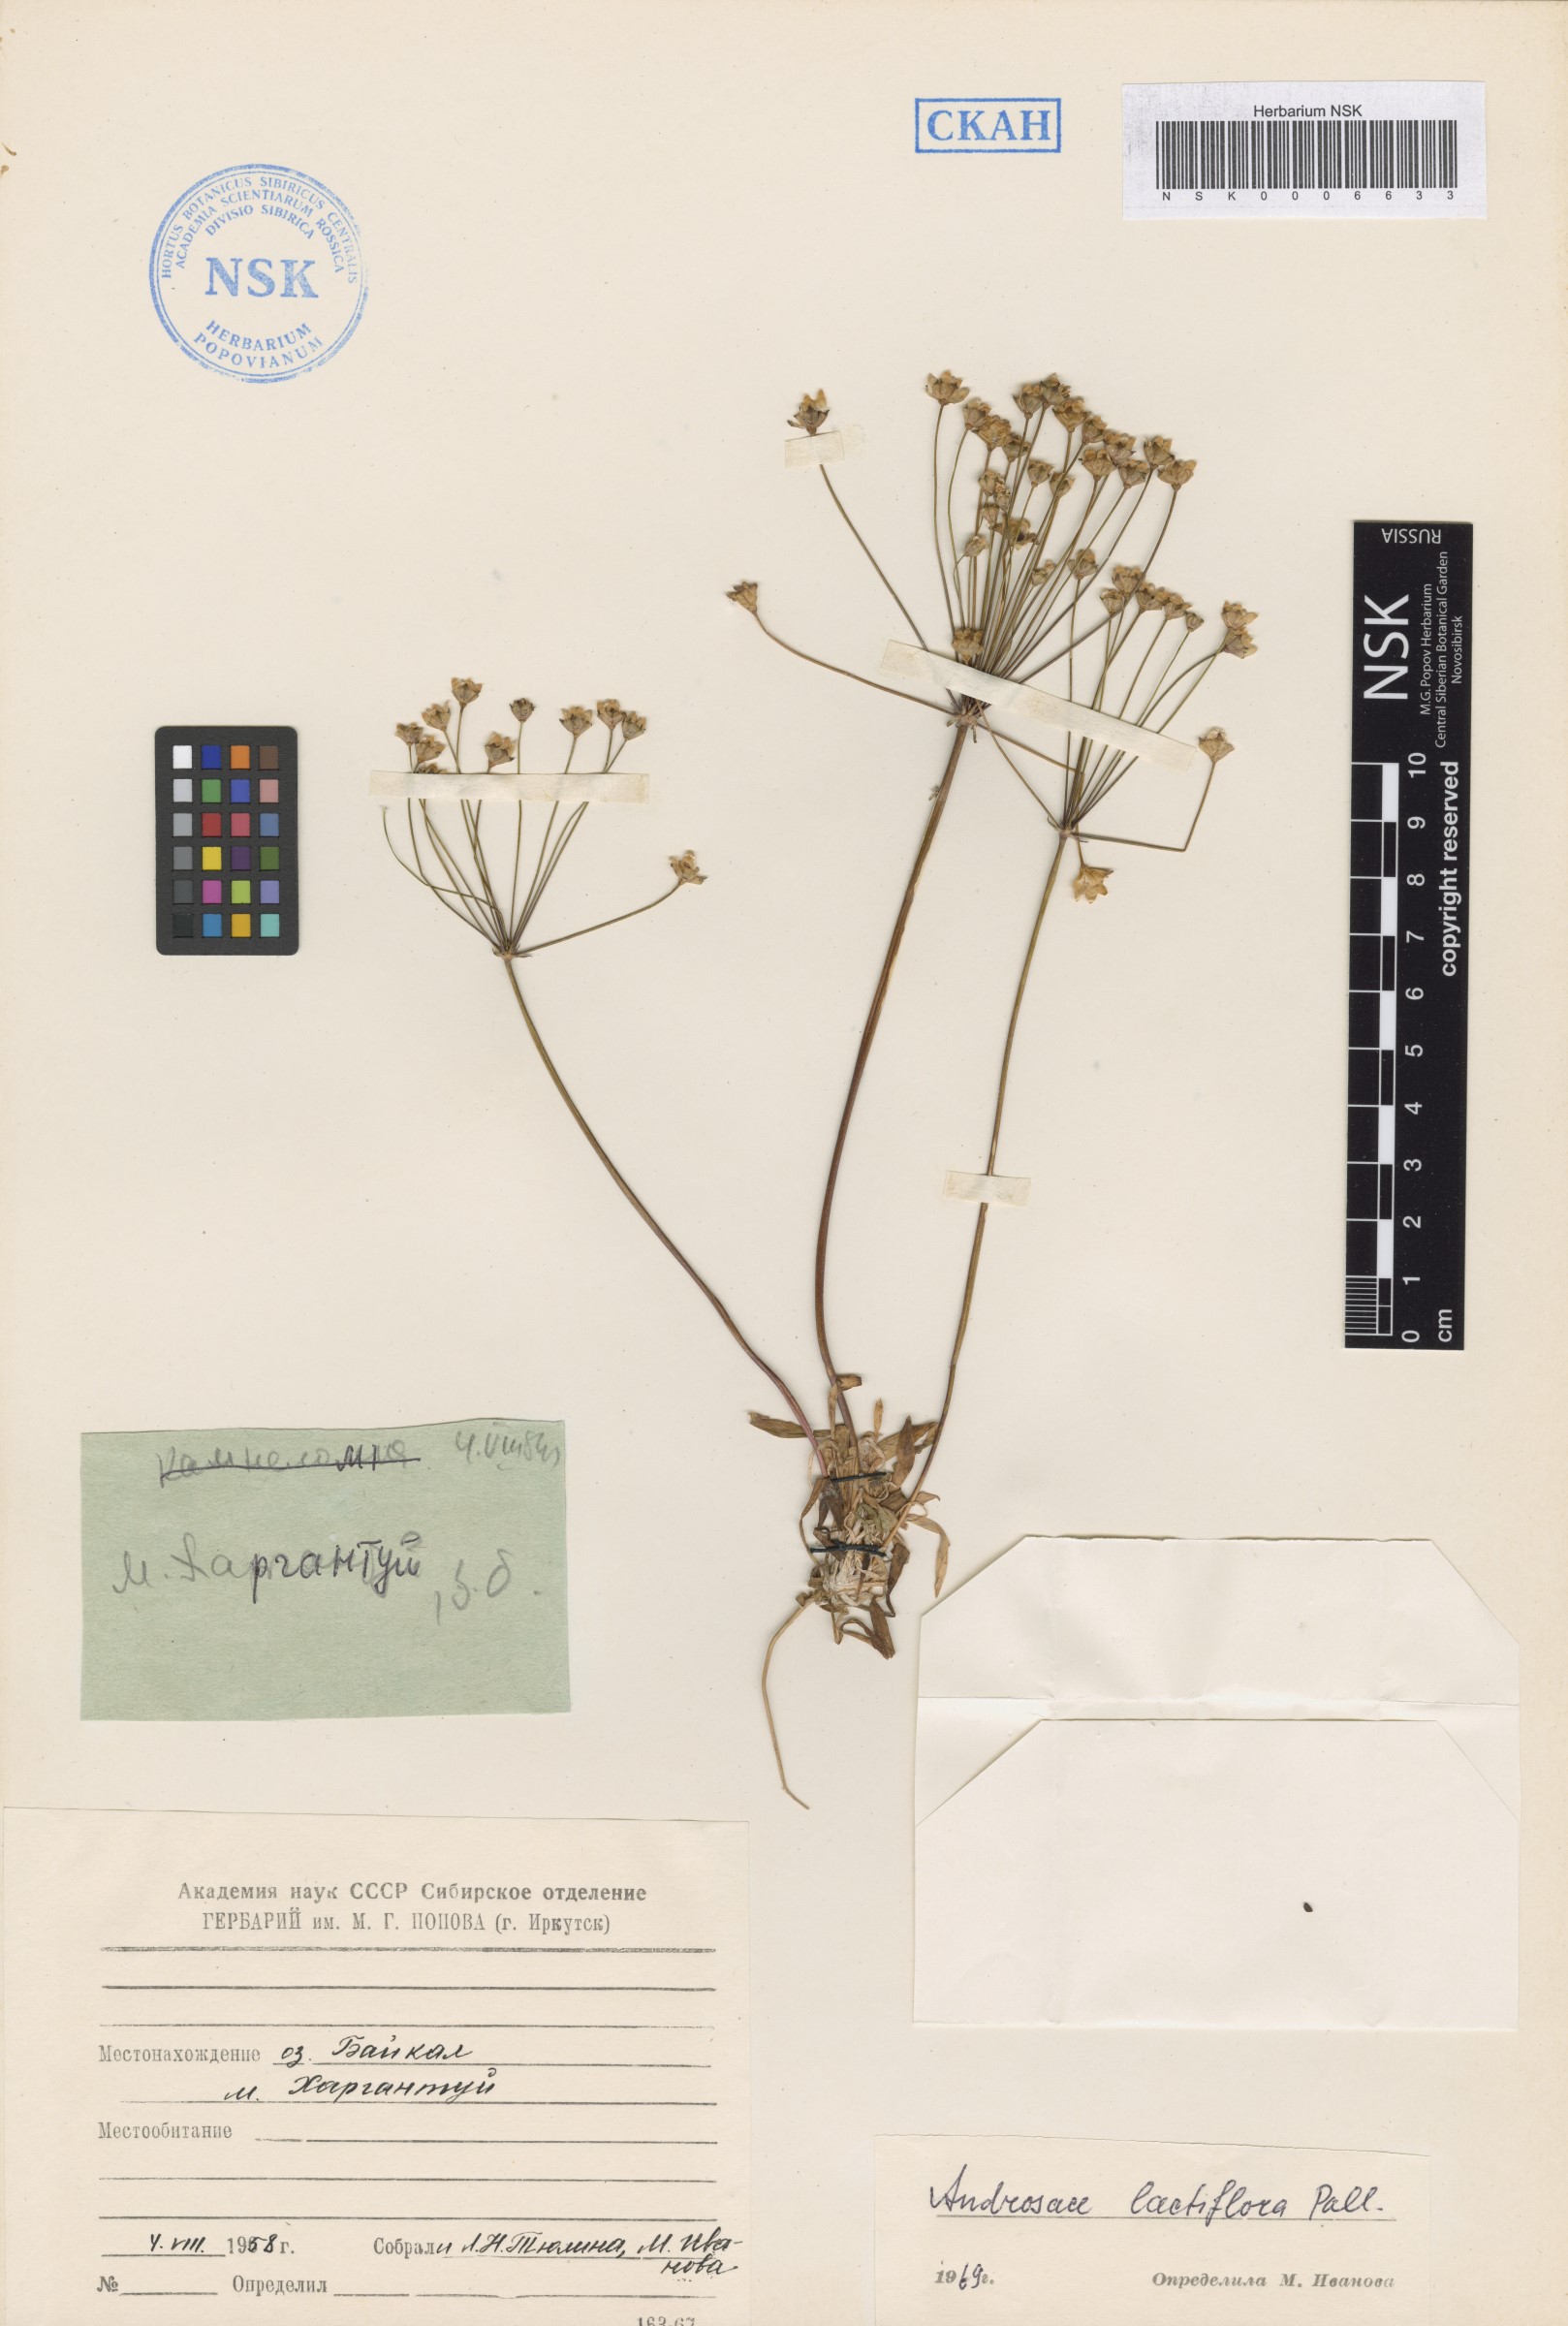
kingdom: Plantae
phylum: Tracheophyta
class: Magnoliopsida
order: Ericales
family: Primulaceae
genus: Androsace
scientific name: Androsace lactiflora
